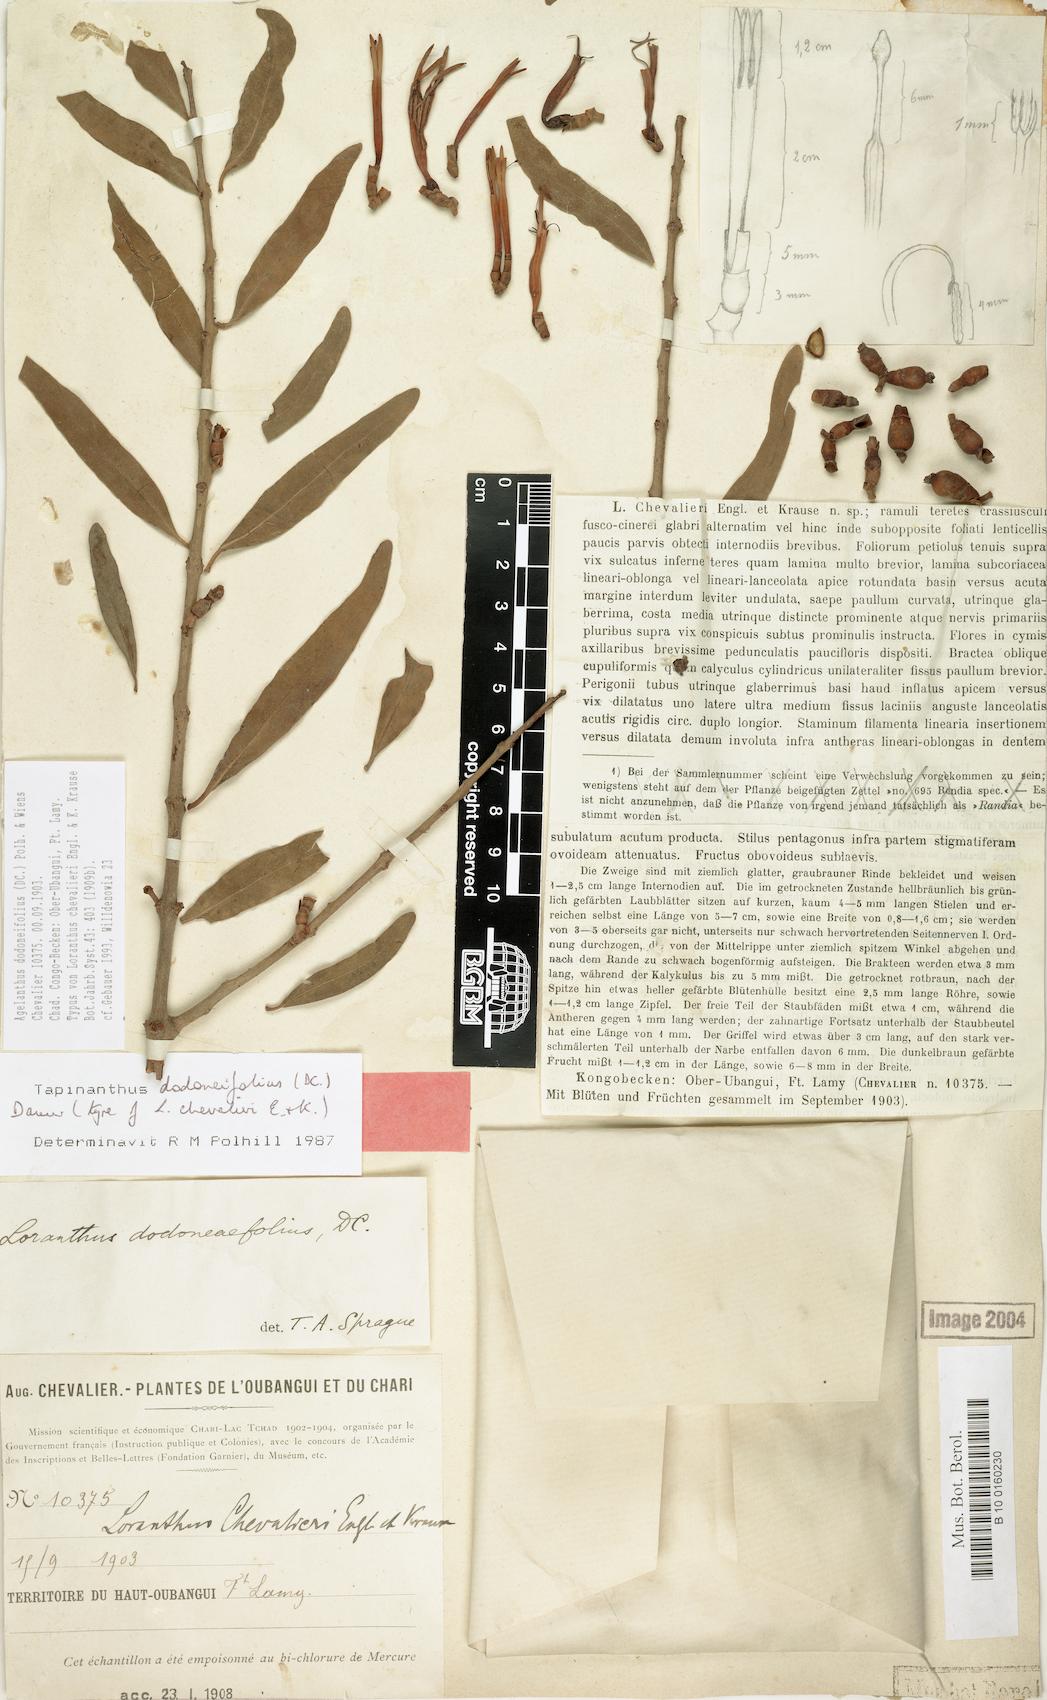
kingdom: Plantae
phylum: Tracheophyta
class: Magnoliopsida
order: Santalales
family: Loranthaceae
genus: Agelanthus
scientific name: Agelanthus dodoneifolius
